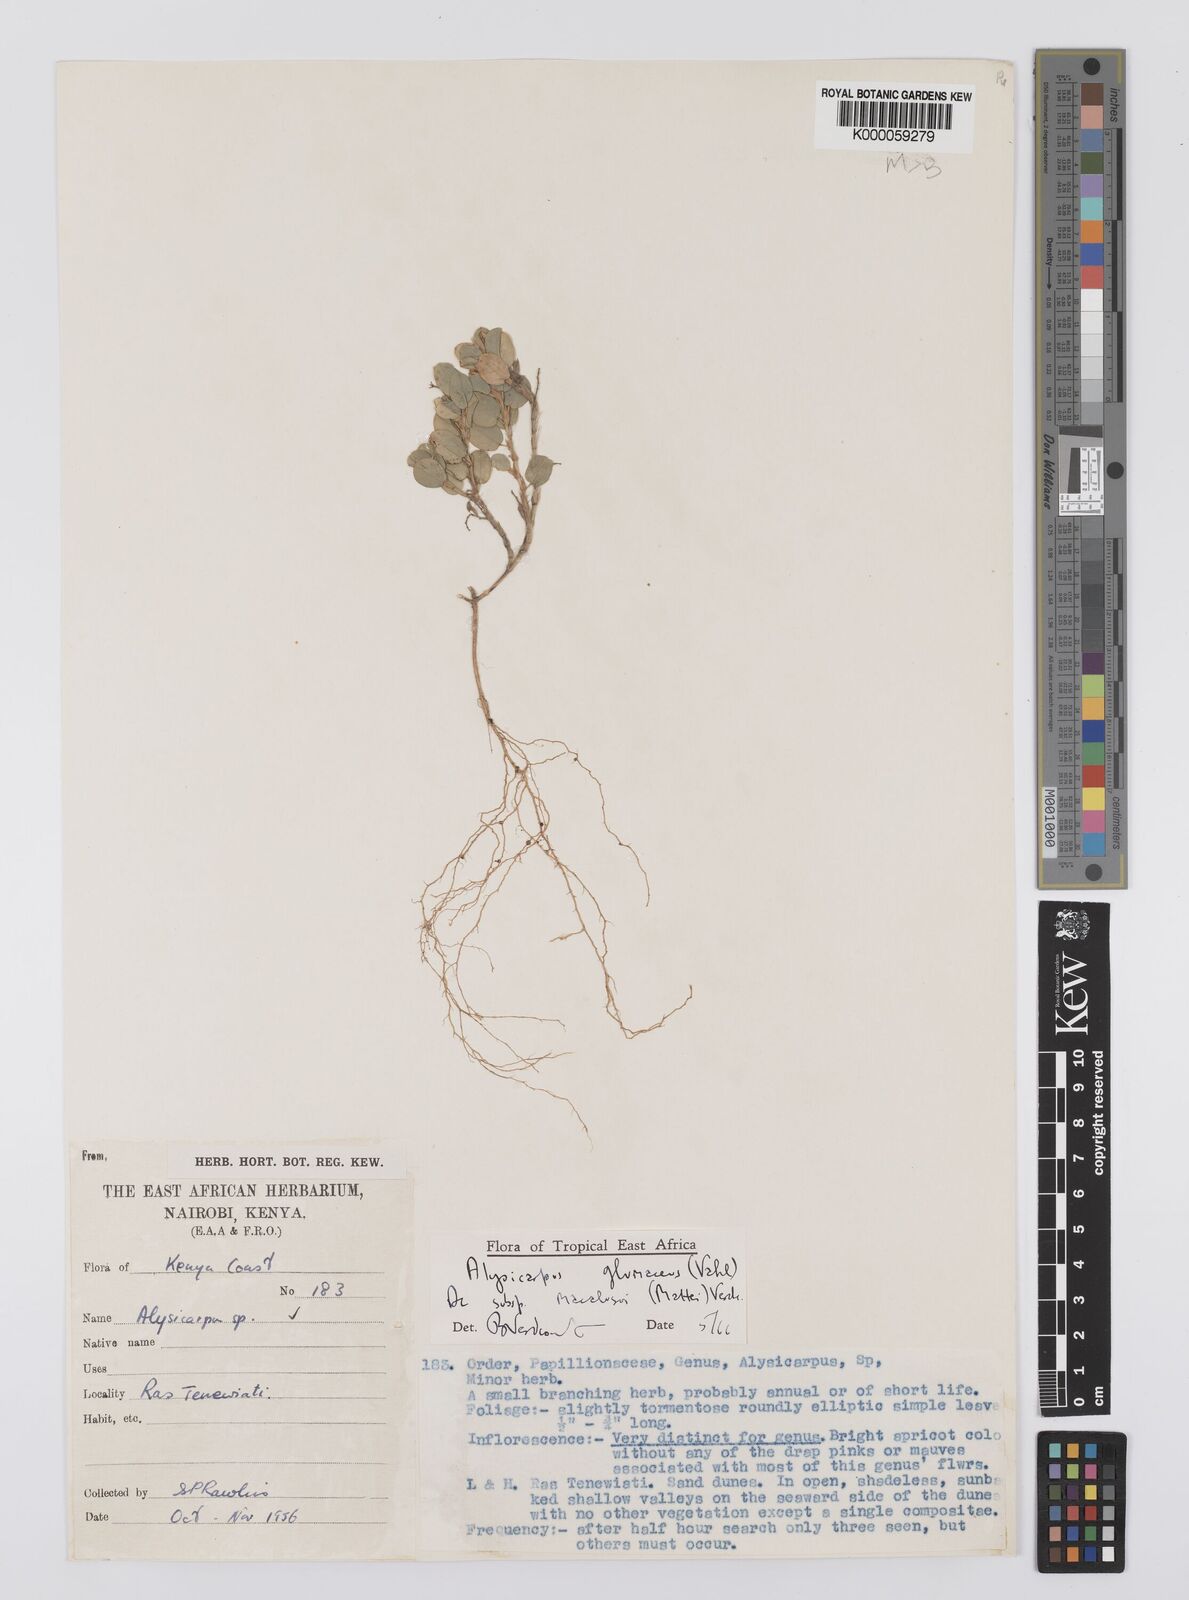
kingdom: Plantae
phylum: Tracheophyta
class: Magnoliopsida
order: Fabales
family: Fabaceae
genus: Alysicarpus
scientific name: Alysicarpus glumaceus
